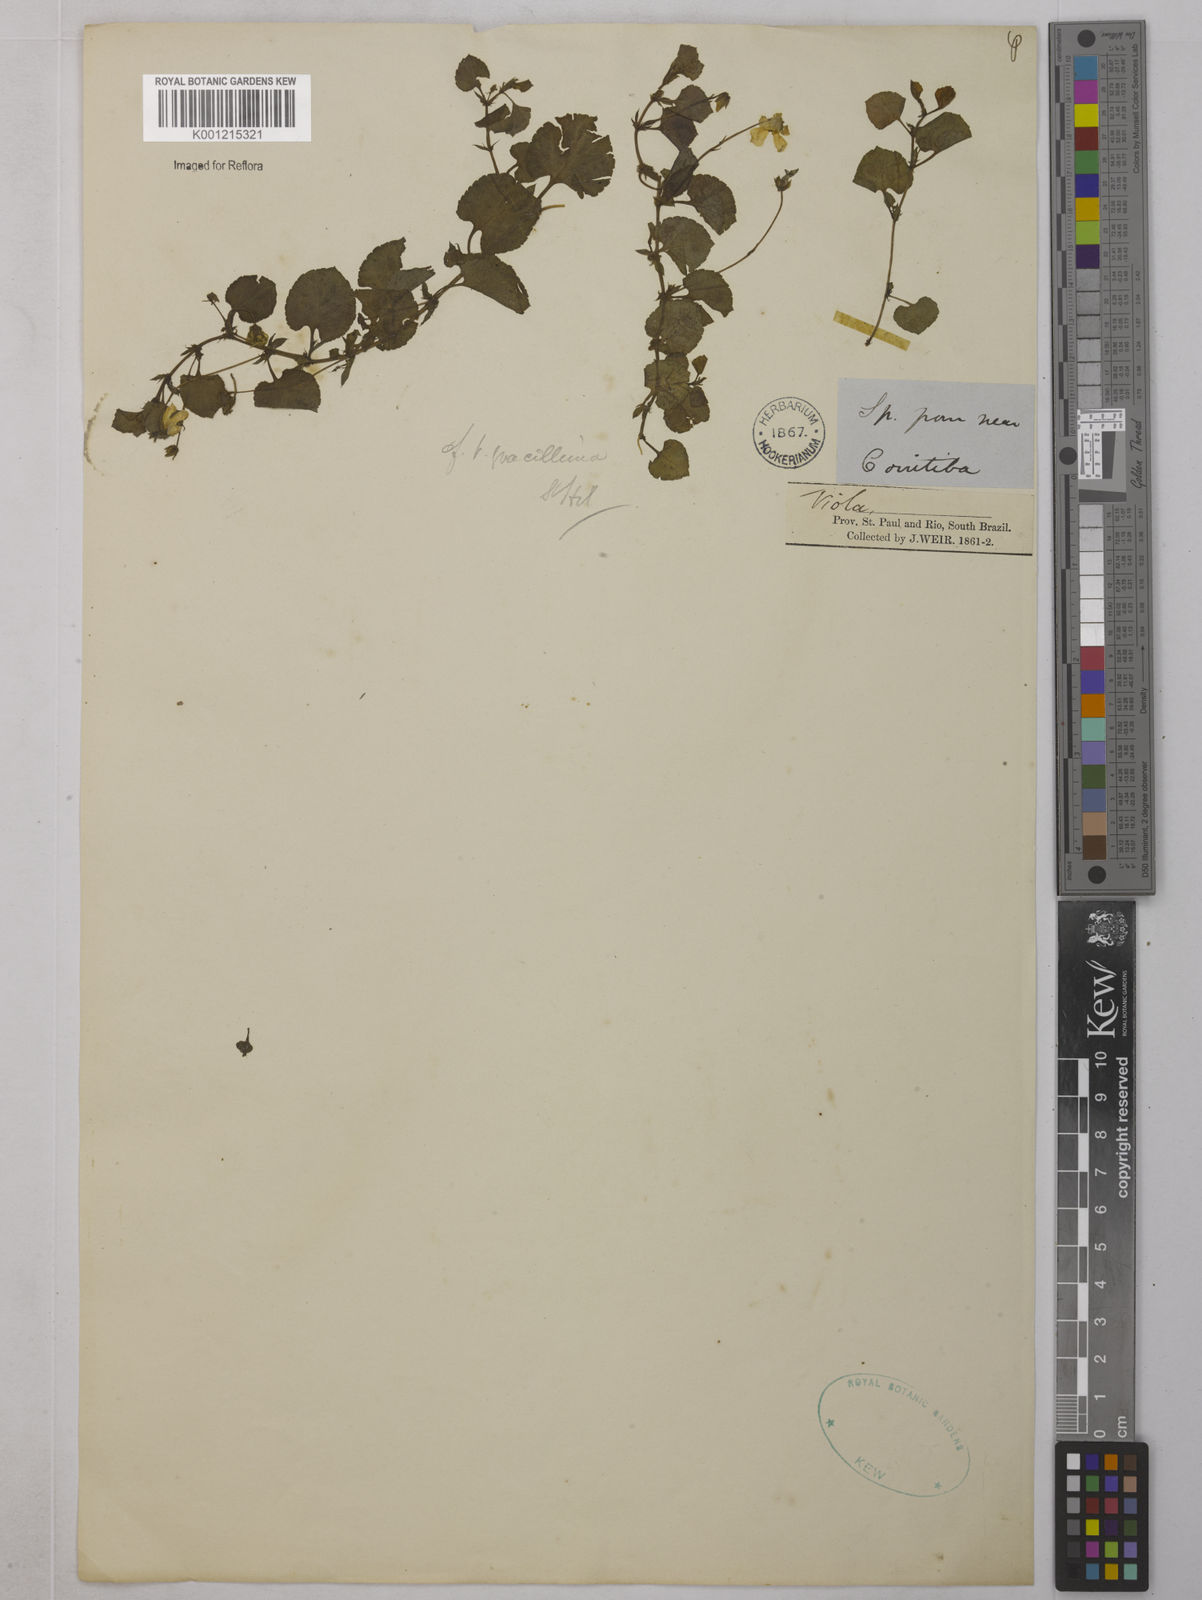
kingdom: Plantae
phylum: Tracheophyta
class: Magnoliopsida
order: Malpighiales
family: Violaceae
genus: Viola
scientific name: Viola gracillima
